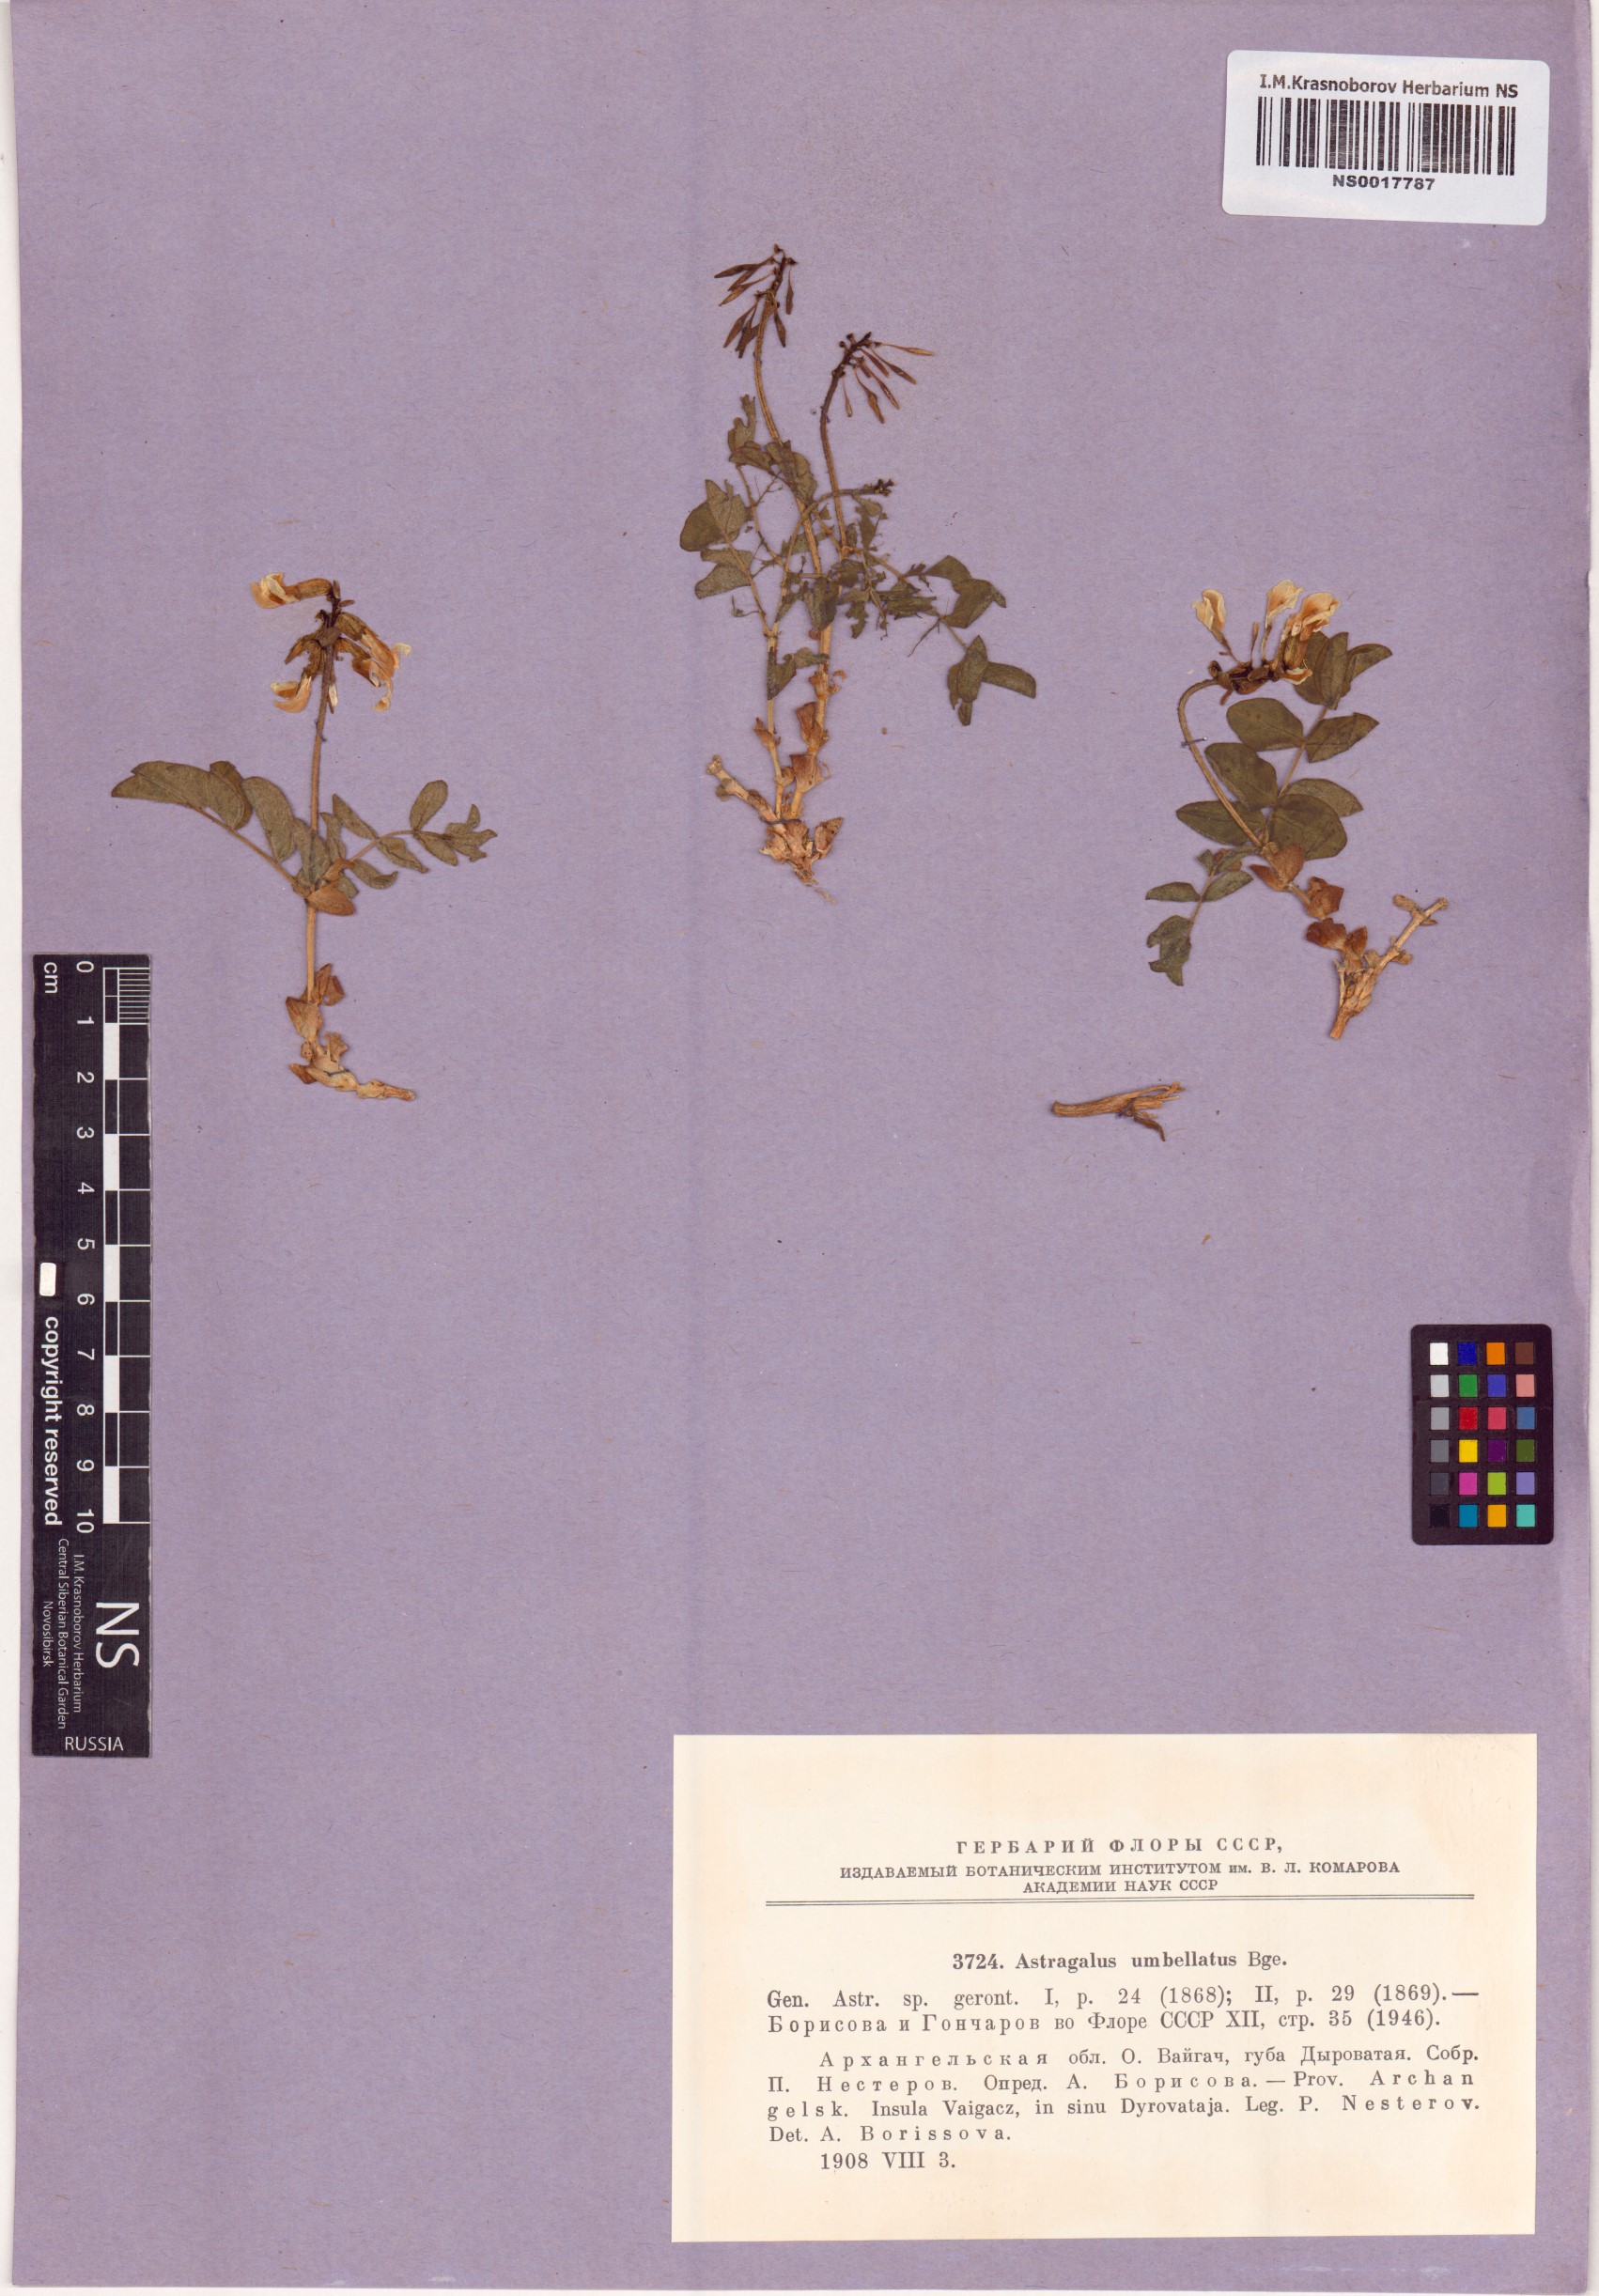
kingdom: Plantae
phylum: Tracheophyta
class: Magnoliopsida
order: Fabales
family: Fabaceae
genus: Astragalus
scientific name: Astragalus umbellatus
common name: Tundra milk-vetch
